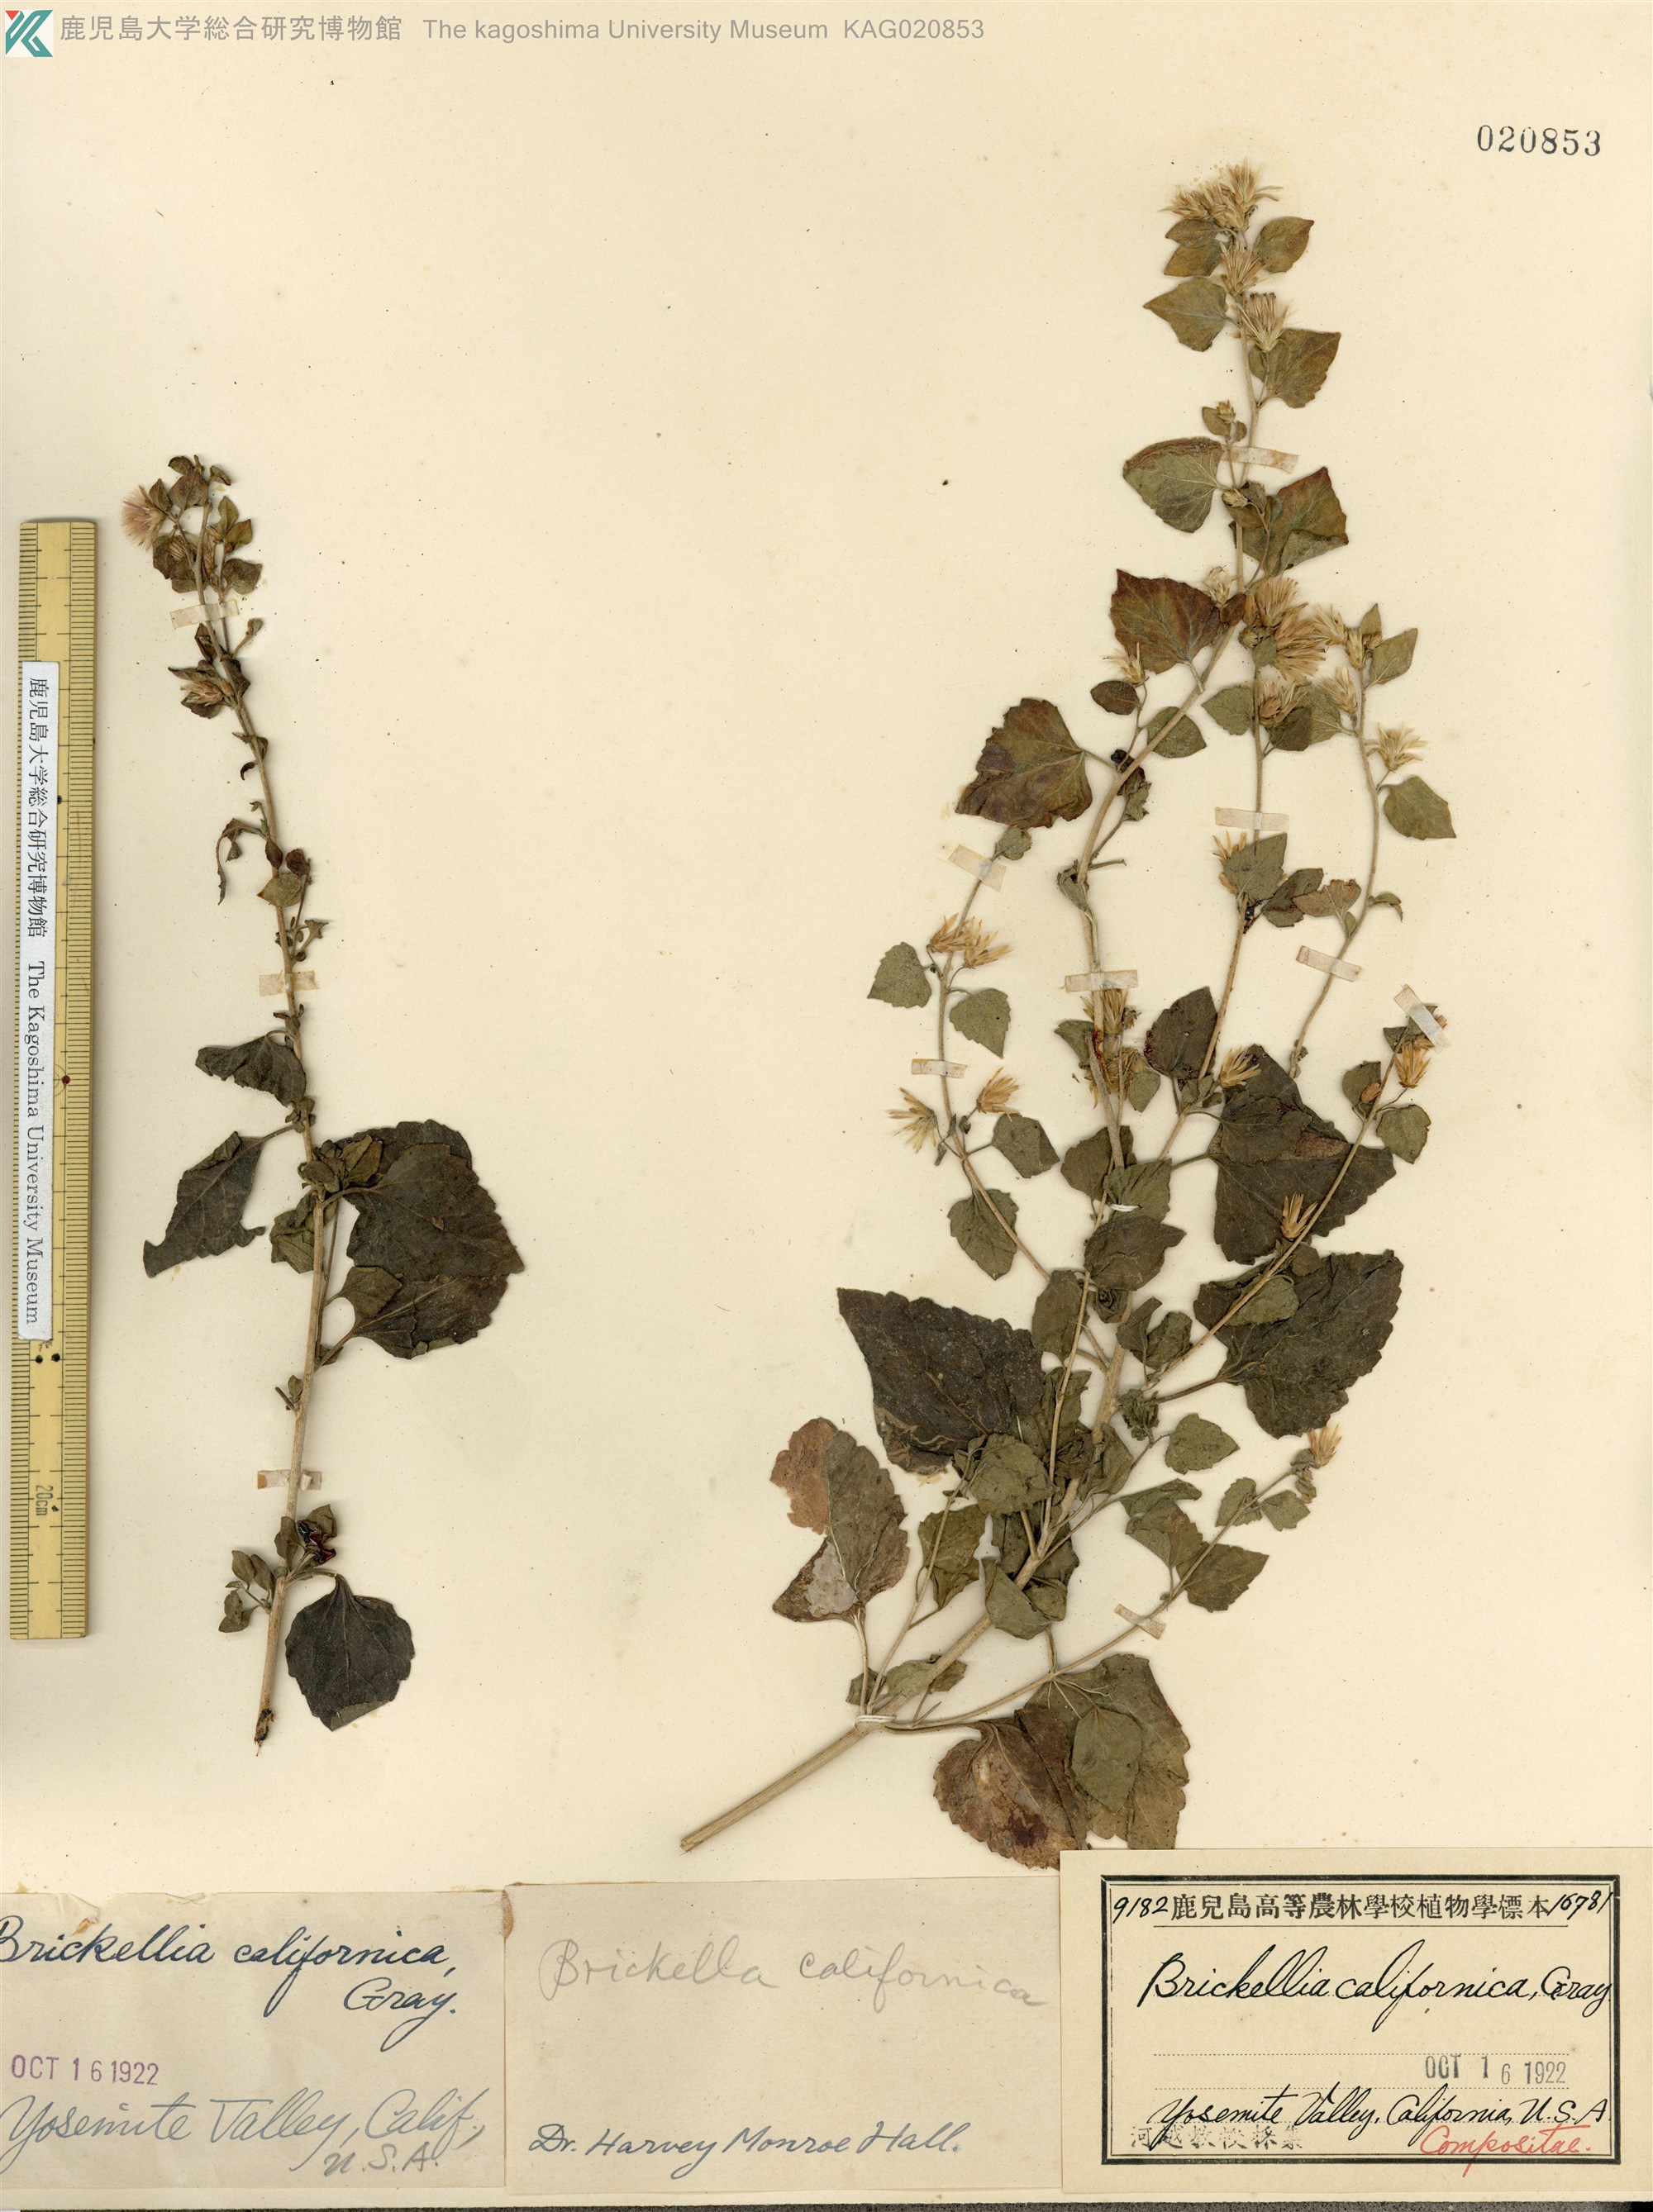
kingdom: Plantae
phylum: Tracheophyta
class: Magnoliopsida
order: Asterales
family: Asteraceae
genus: Brickellia
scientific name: Brickellia californica
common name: California brickellbush
